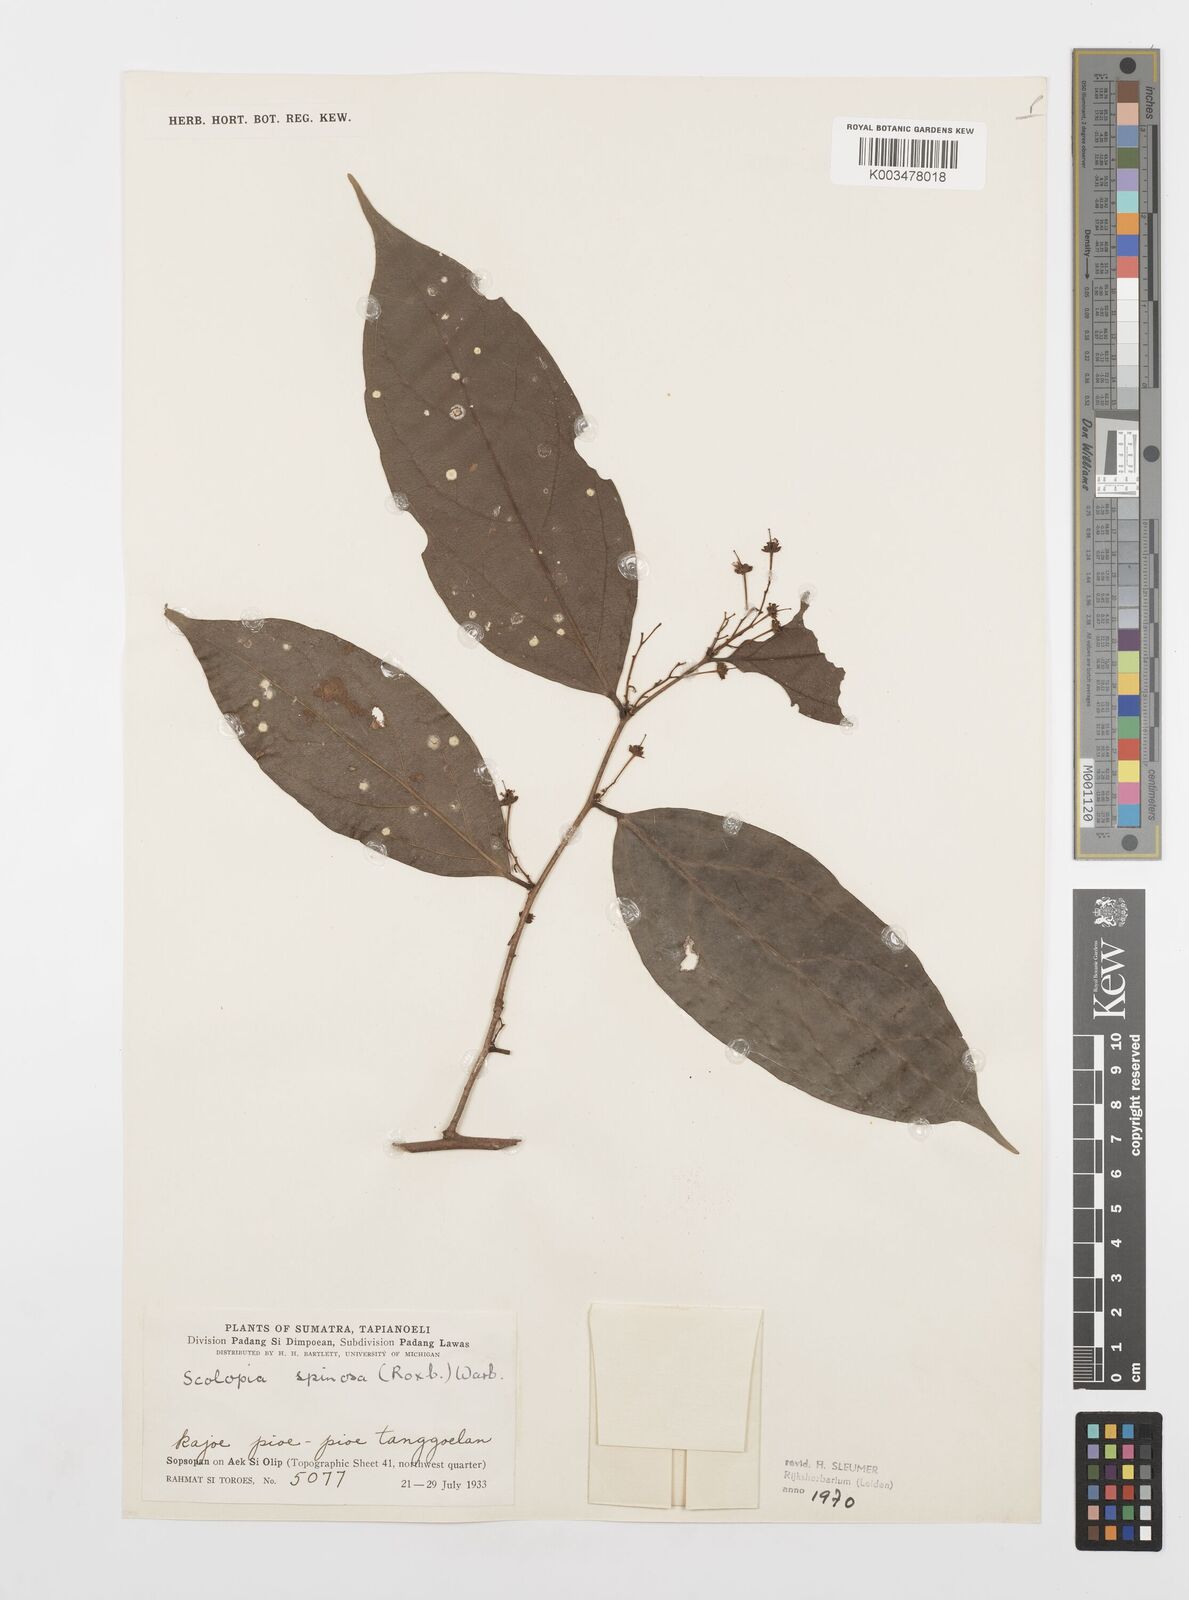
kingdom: Plantae
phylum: Tracheophyta
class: Magnoliopsida
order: Malpighiales
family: Salicaceae
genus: Scolopia
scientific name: Scolopia spinosa
